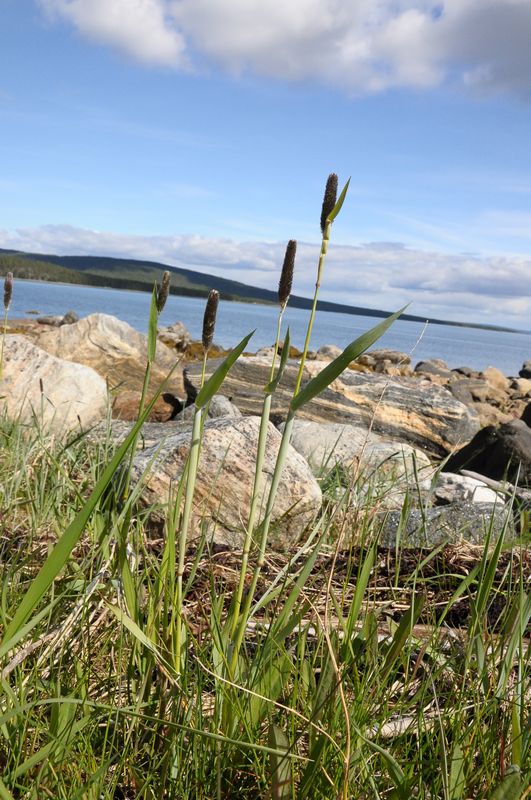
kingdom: Plantae
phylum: Tracheophyta
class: Liliopsida
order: Poales
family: Poaceae
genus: Alopecurus
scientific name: Alopecurus arundinaceus
